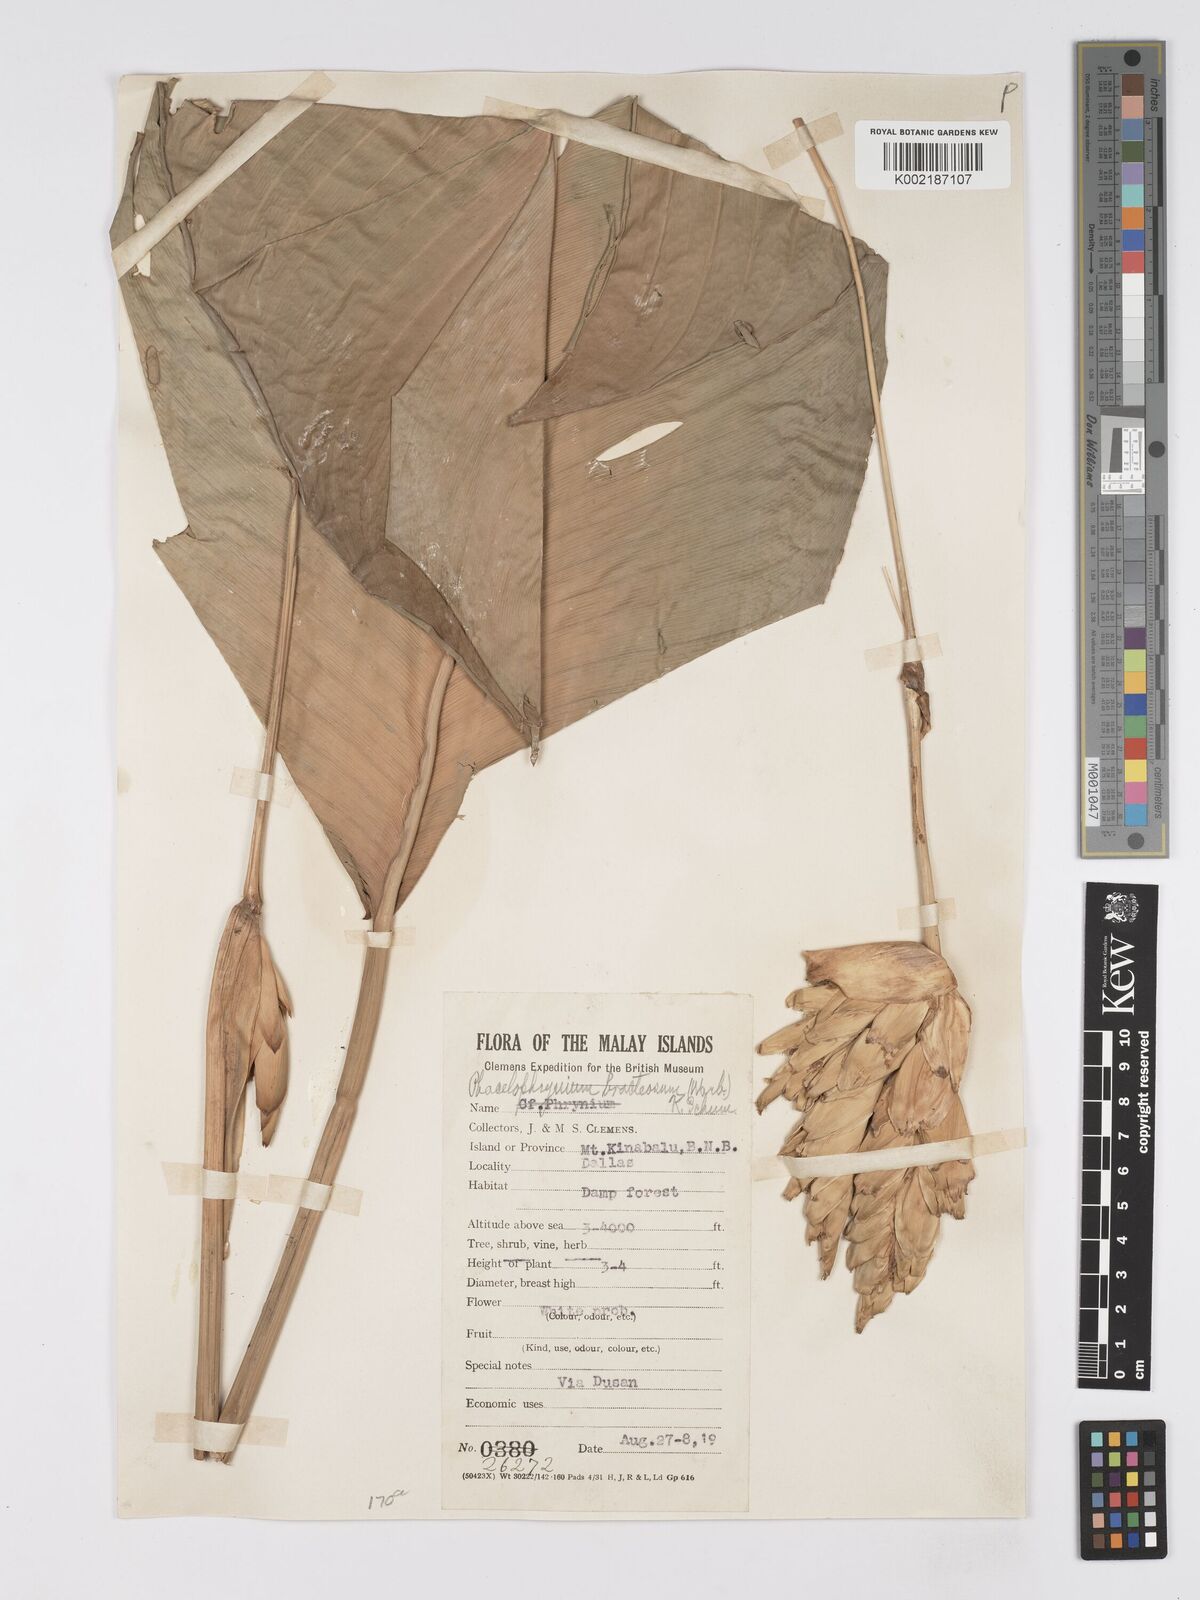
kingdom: Plantae
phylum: Tracheophyta
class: Liliopsida
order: Zingiberales
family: Marantaceae
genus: Phrynium
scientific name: Phrynium maximum
